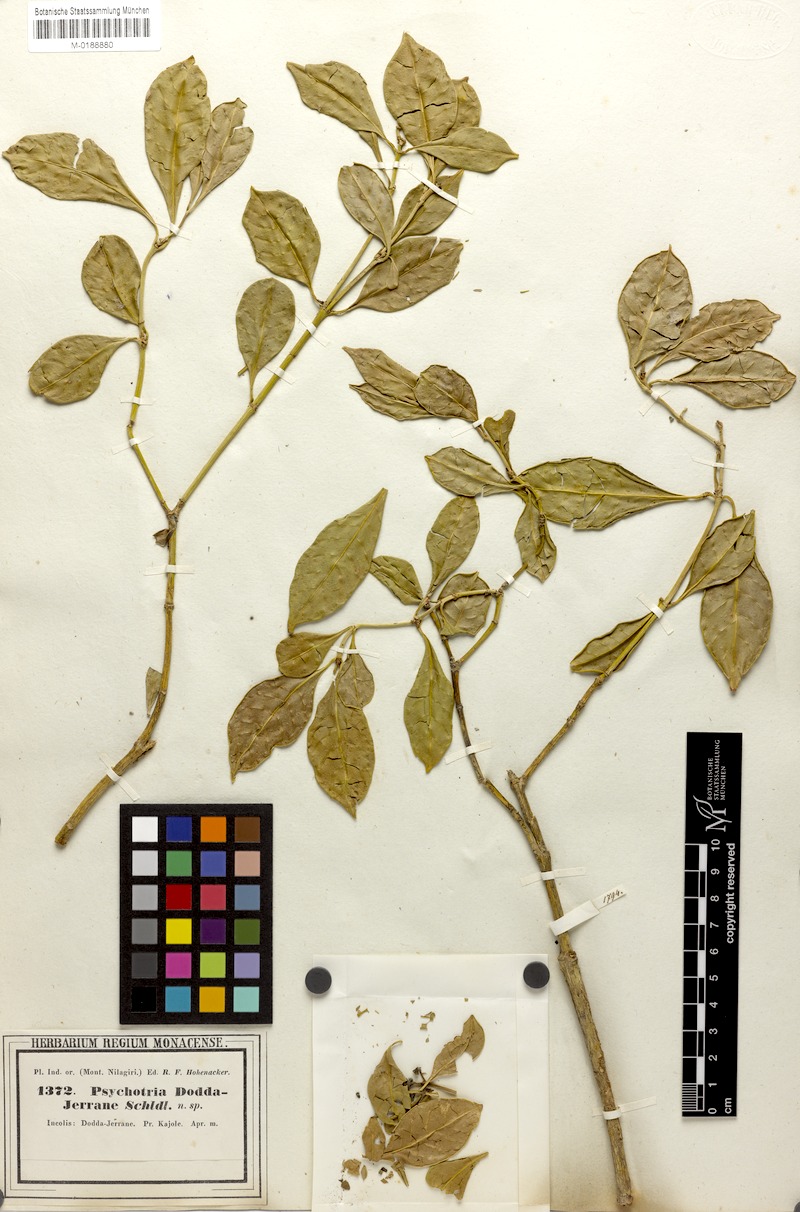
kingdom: Plantae
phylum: Tracheophyta
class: Magnoliopsida
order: Gentianales
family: Rubiaceae
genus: Psychotria
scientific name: Psychotria bisulcata
